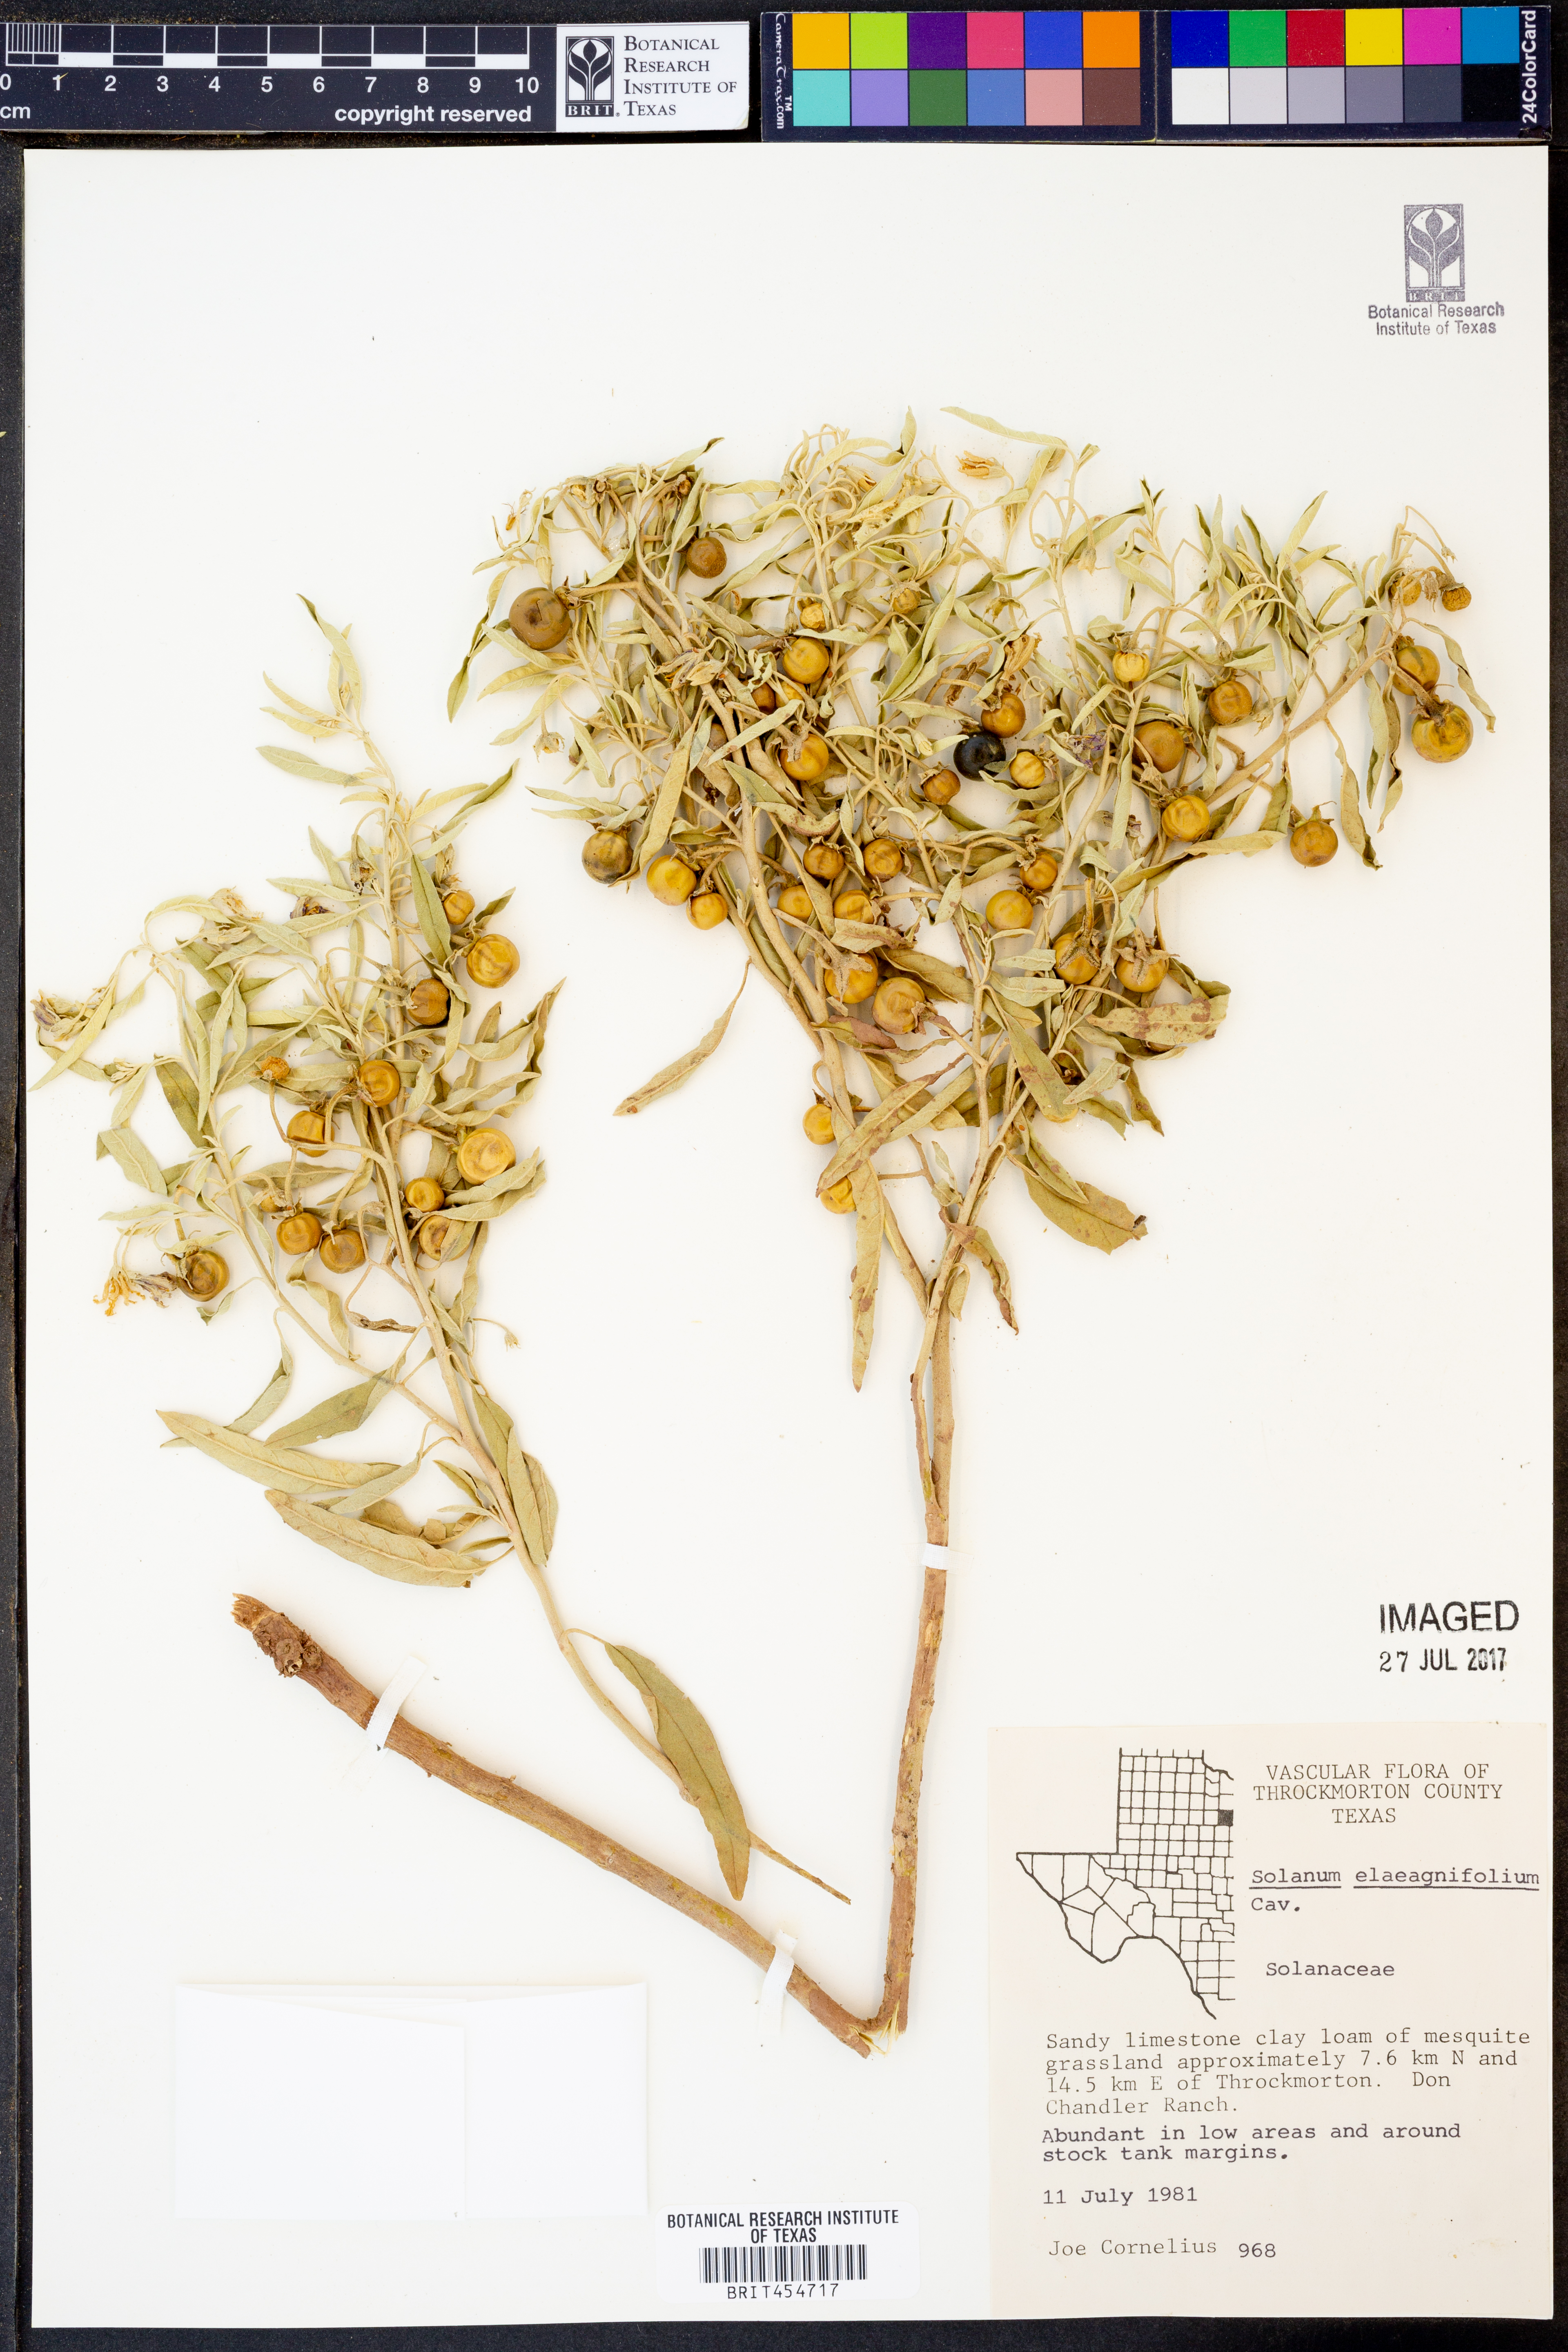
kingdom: Plantae
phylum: Tracheophyta
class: Magnoliopsida
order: Solanales
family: Solanaceae
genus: Solanum
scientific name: Solanum elaeagnifolium
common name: Silverleaf nightshade
